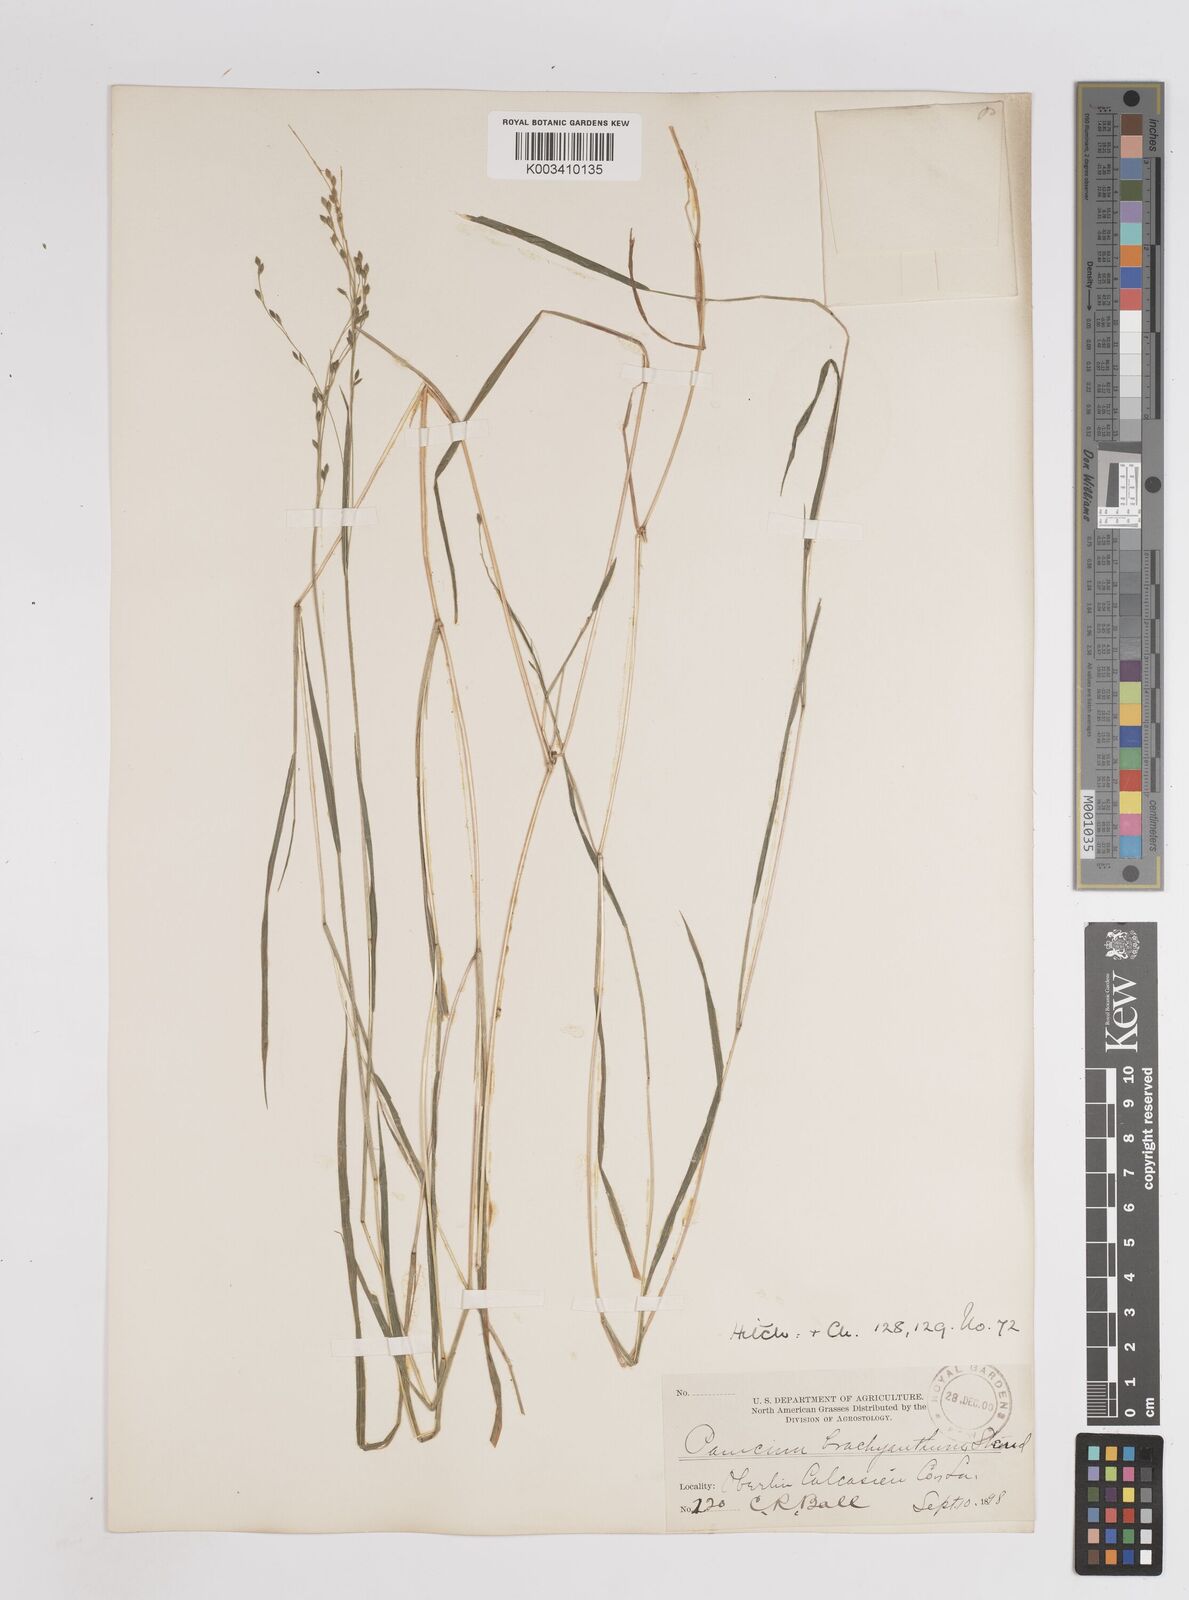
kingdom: Plantae
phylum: Tracheophyta
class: Liliopsida
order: Poales
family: Poaceae
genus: Kellochloa
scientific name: Kellochloa brachyantha
